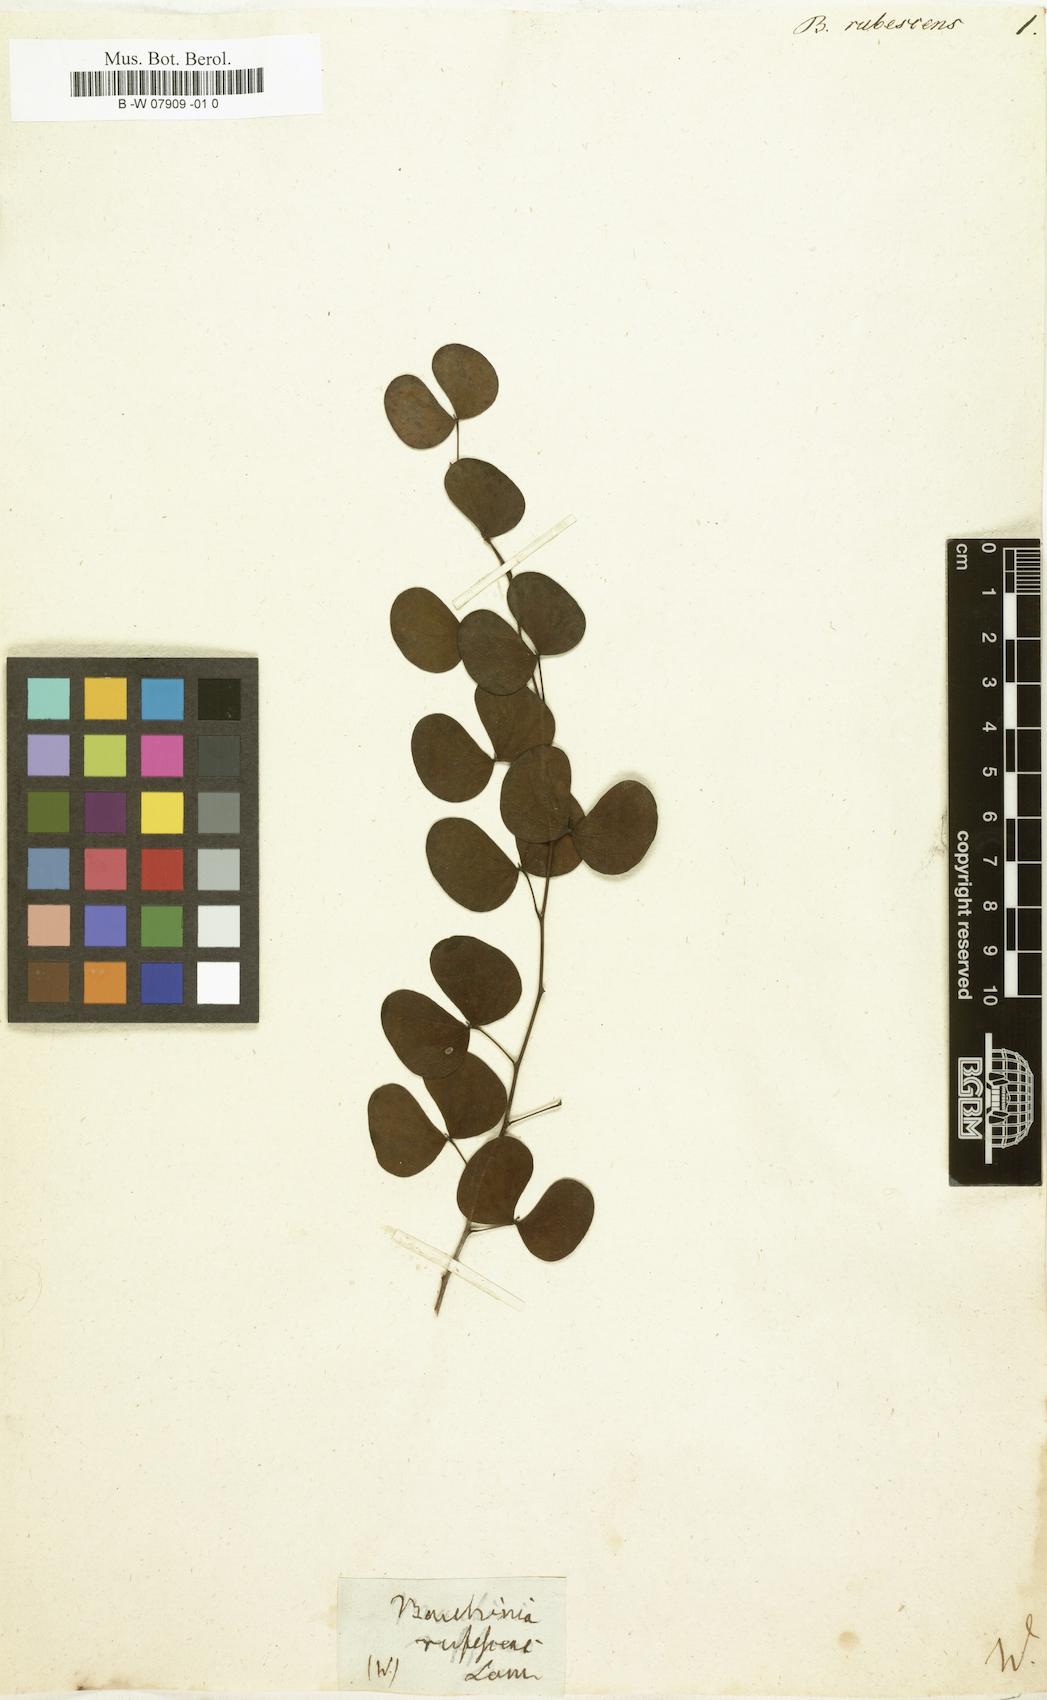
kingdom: Plantae
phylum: Tracheophyta
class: Magnoliopsida
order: Fabales
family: Fabaceae
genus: Bauhinia
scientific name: Bauhinia rufescens
